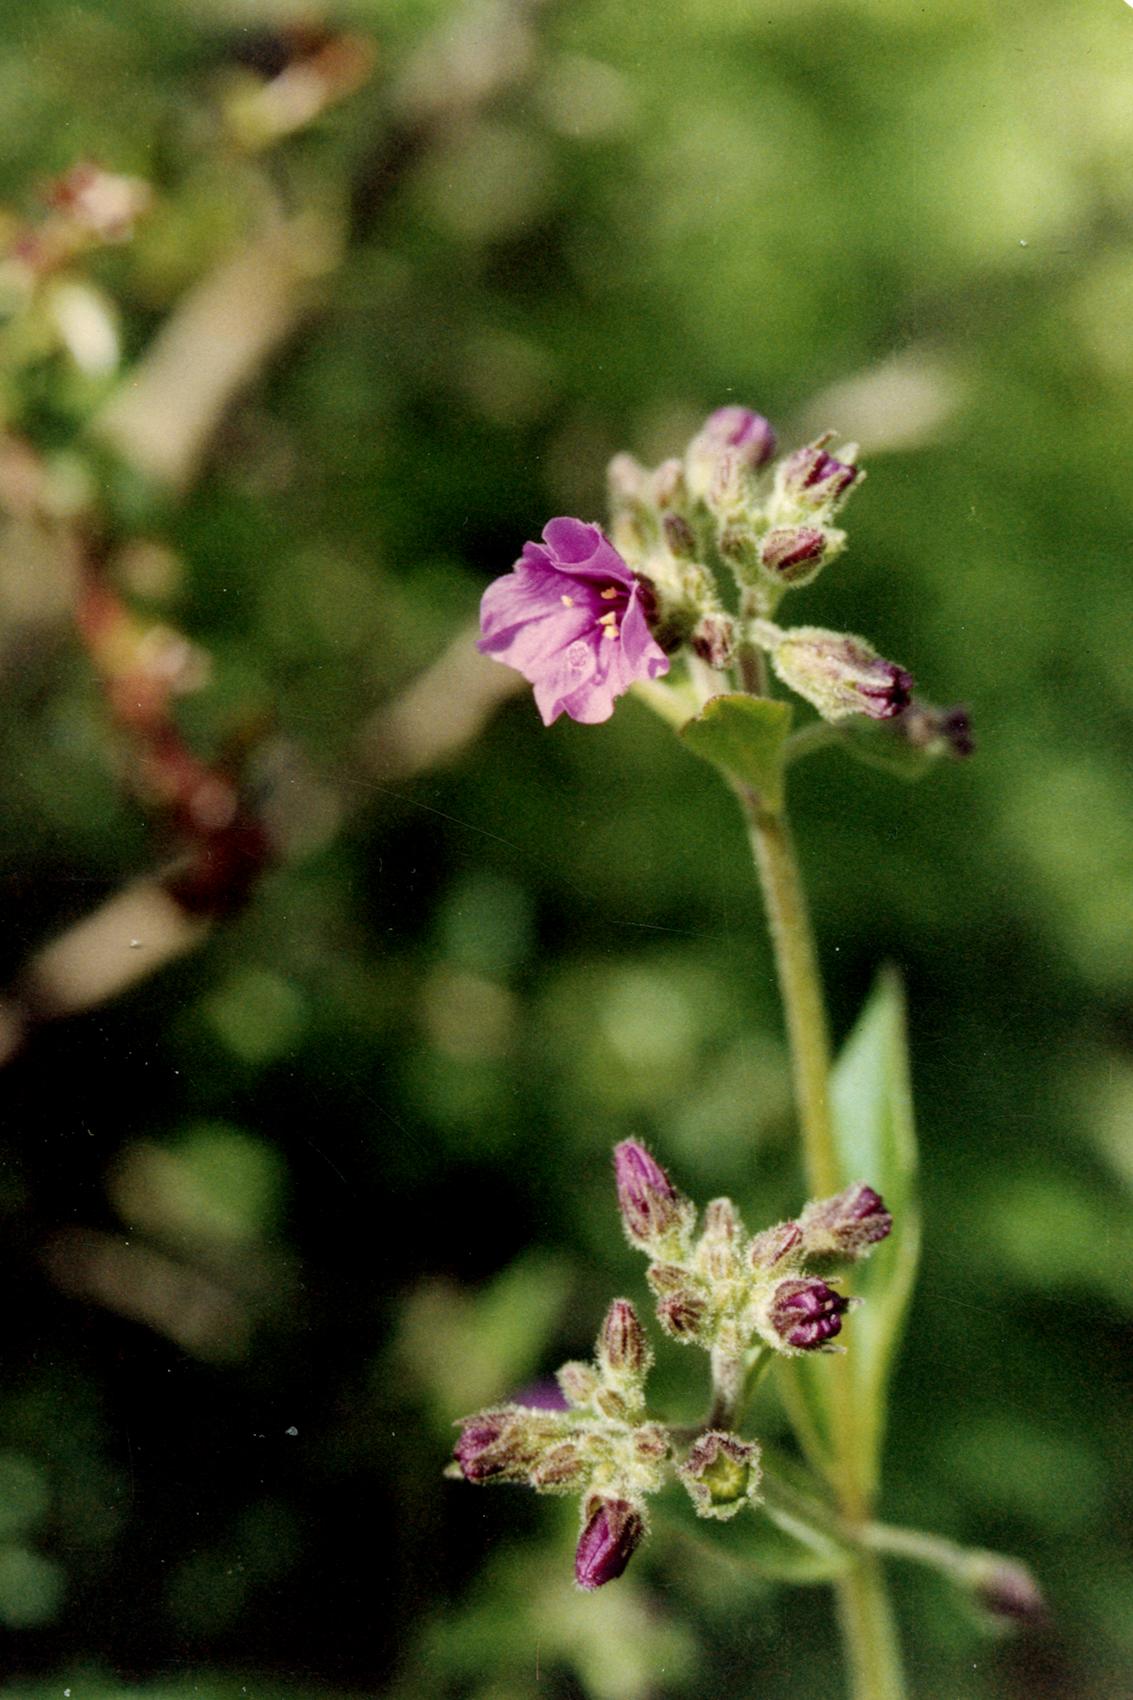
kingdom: Plantae
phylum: Tracheophyta
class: Magnoliopsida
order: Caryophyllales
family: Nyctaginaceae
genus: Mirabilis
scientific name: Mirabilis
